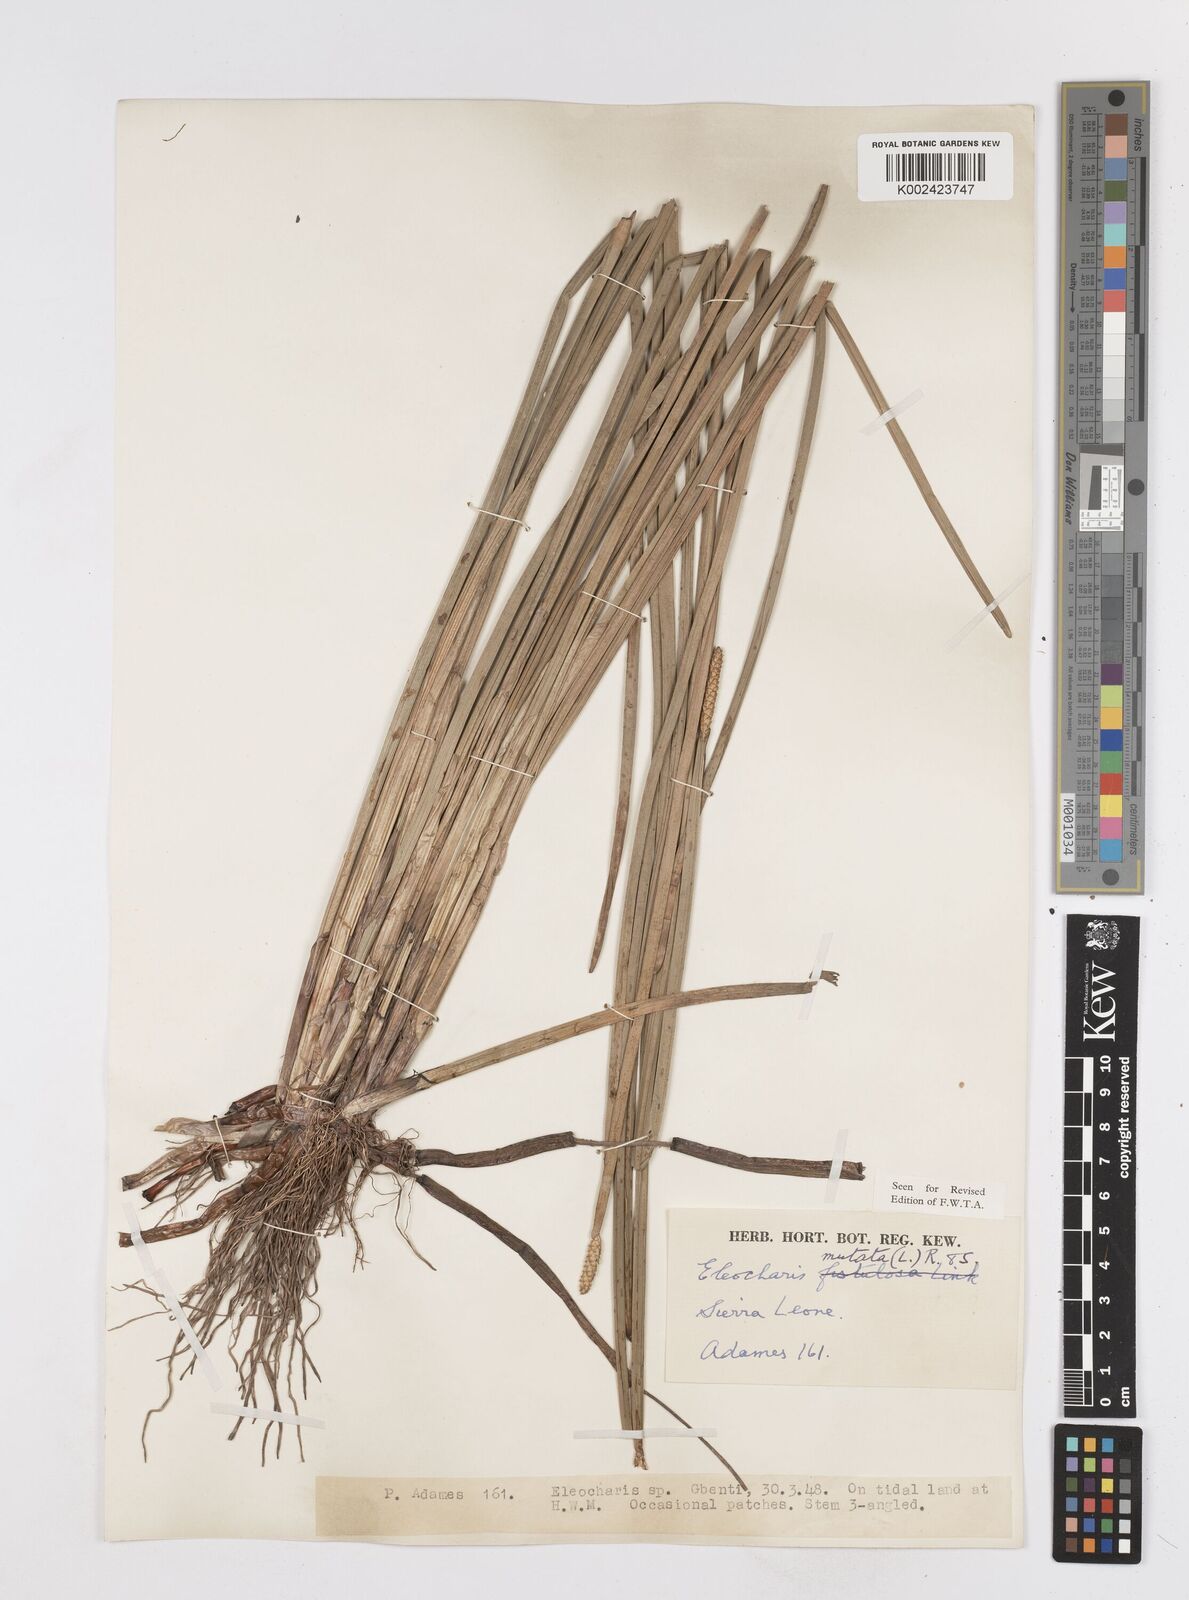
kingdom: Plantae
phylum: Tracheophyta
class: Liliopsida
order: Poales
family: Cyperaceae
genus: Eleocharis
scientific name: Eleocharis mutata
